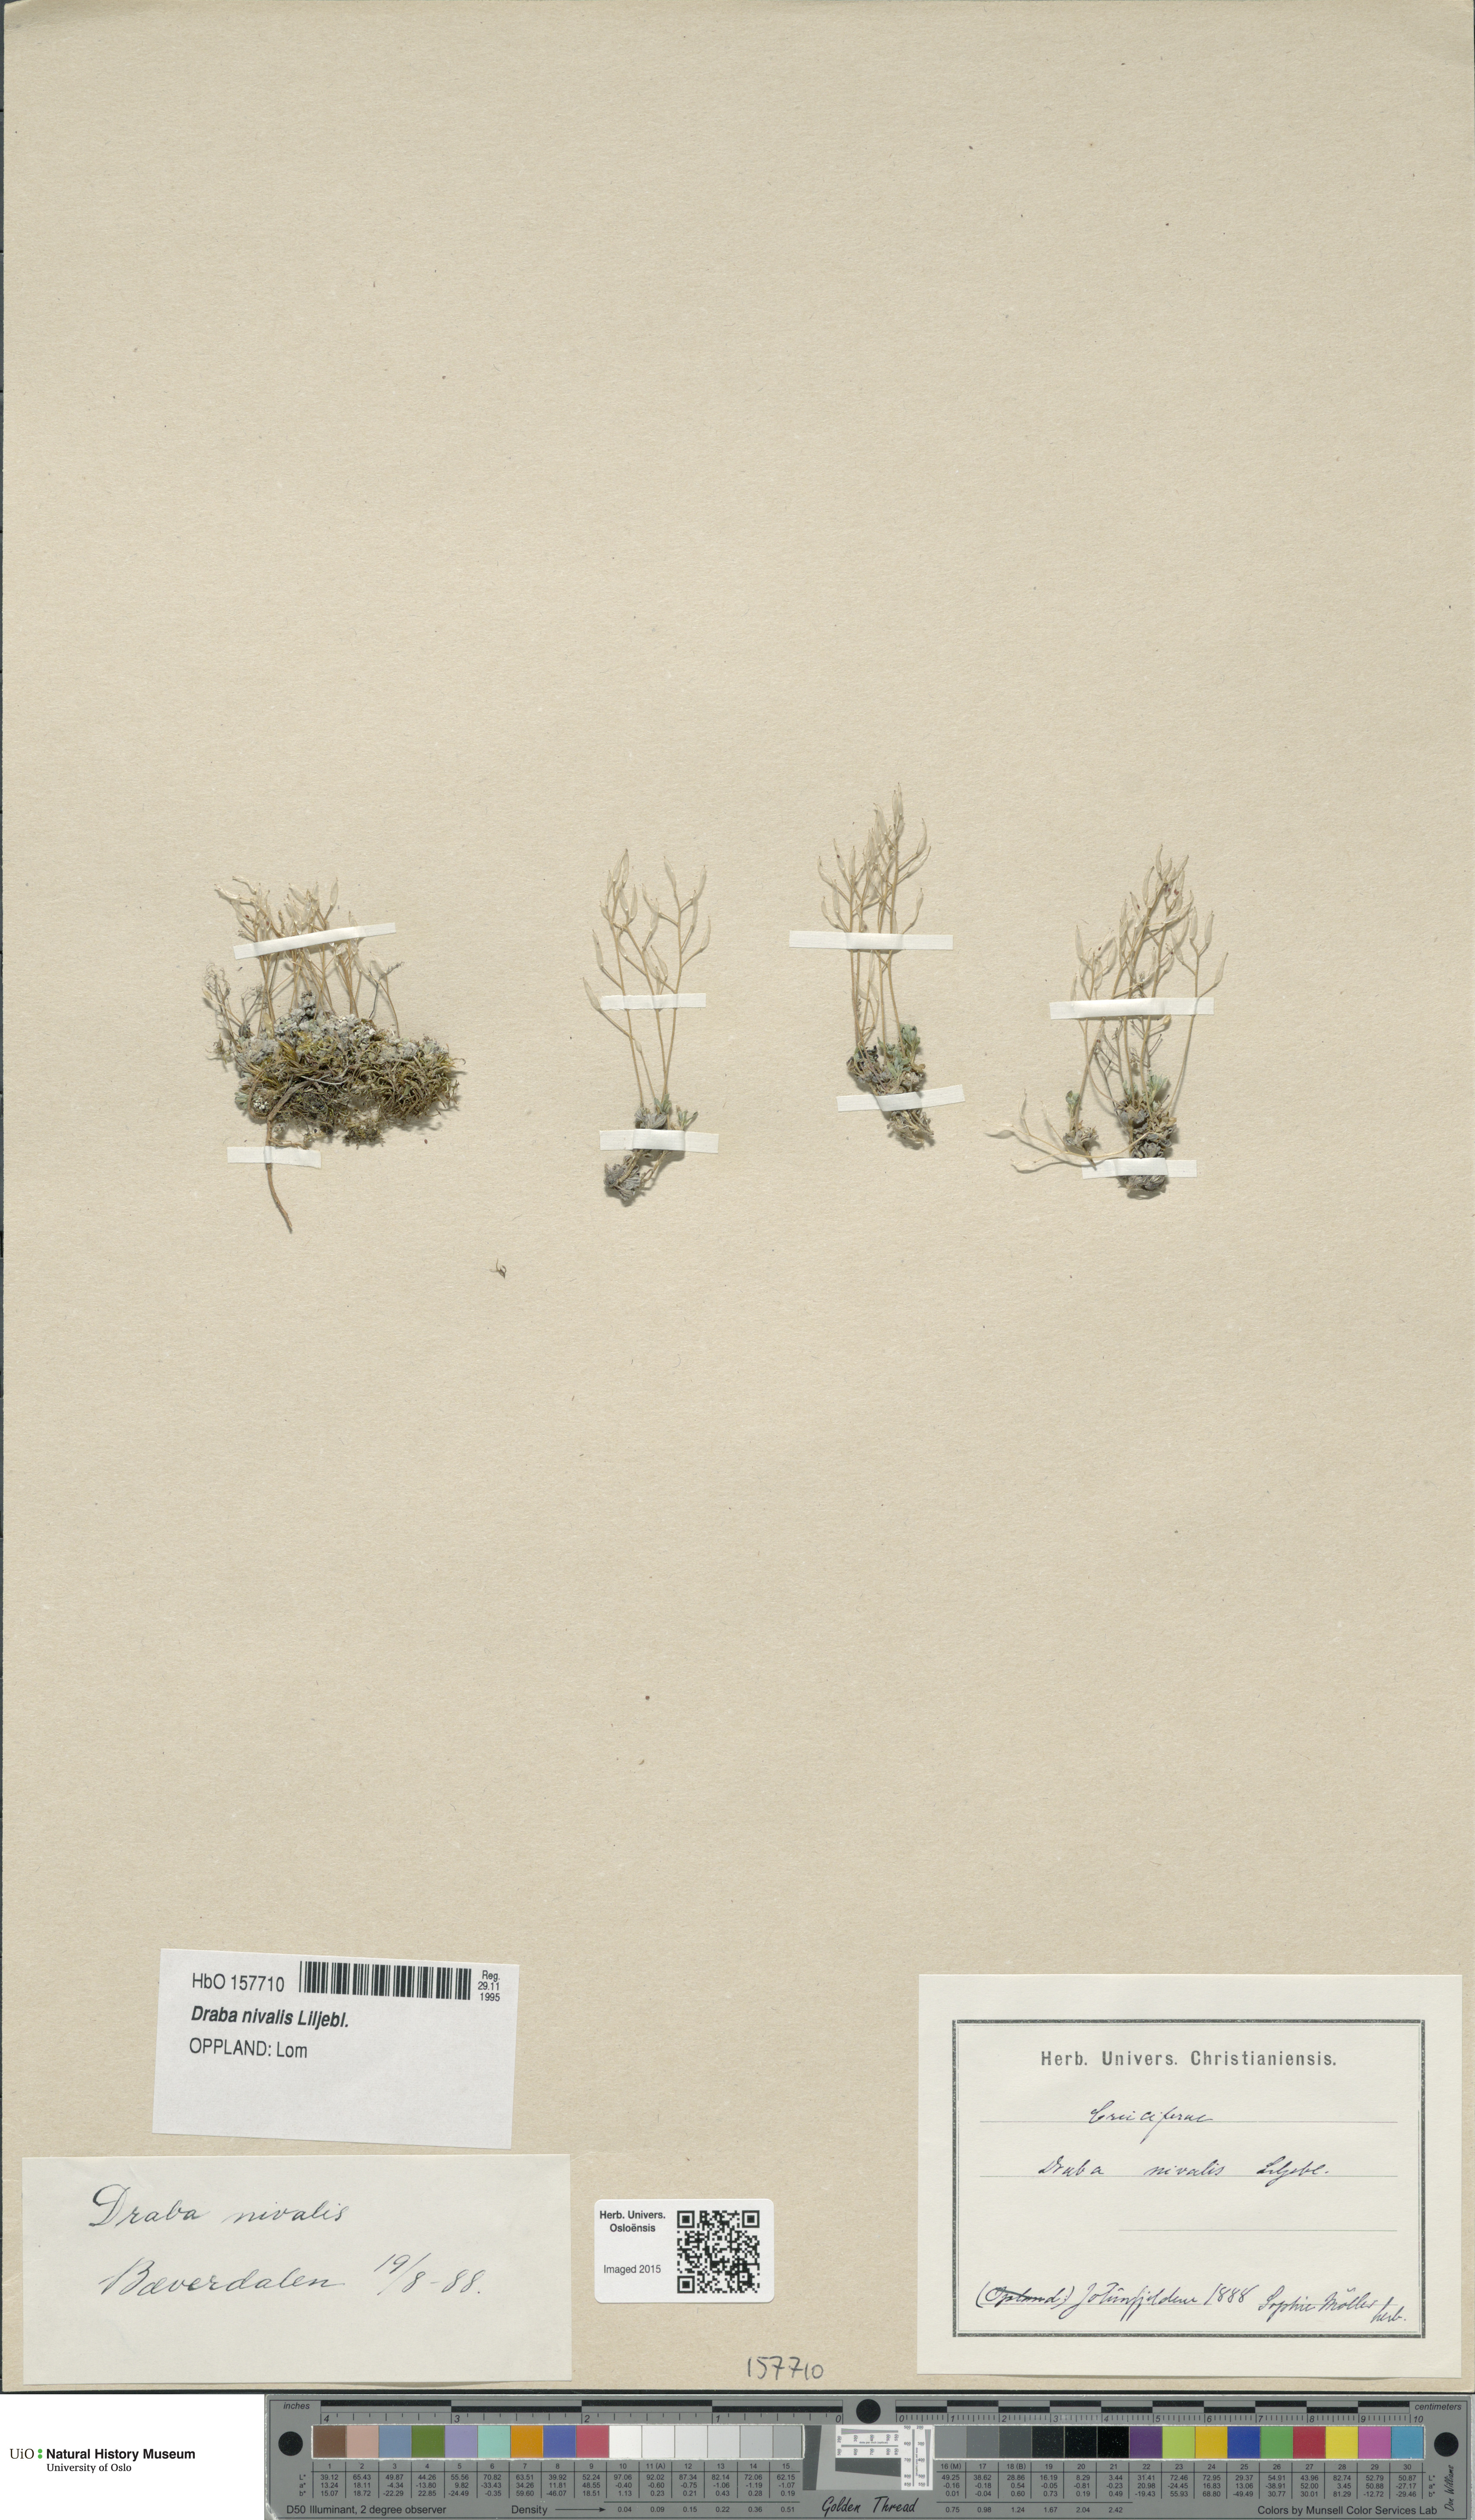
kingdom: Plantae
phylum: Tracheophyta
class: Magnoliopsida
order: Brassicales
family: Brassicaceae
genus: Draba
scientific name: Draba nivalis
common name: Snow draba
